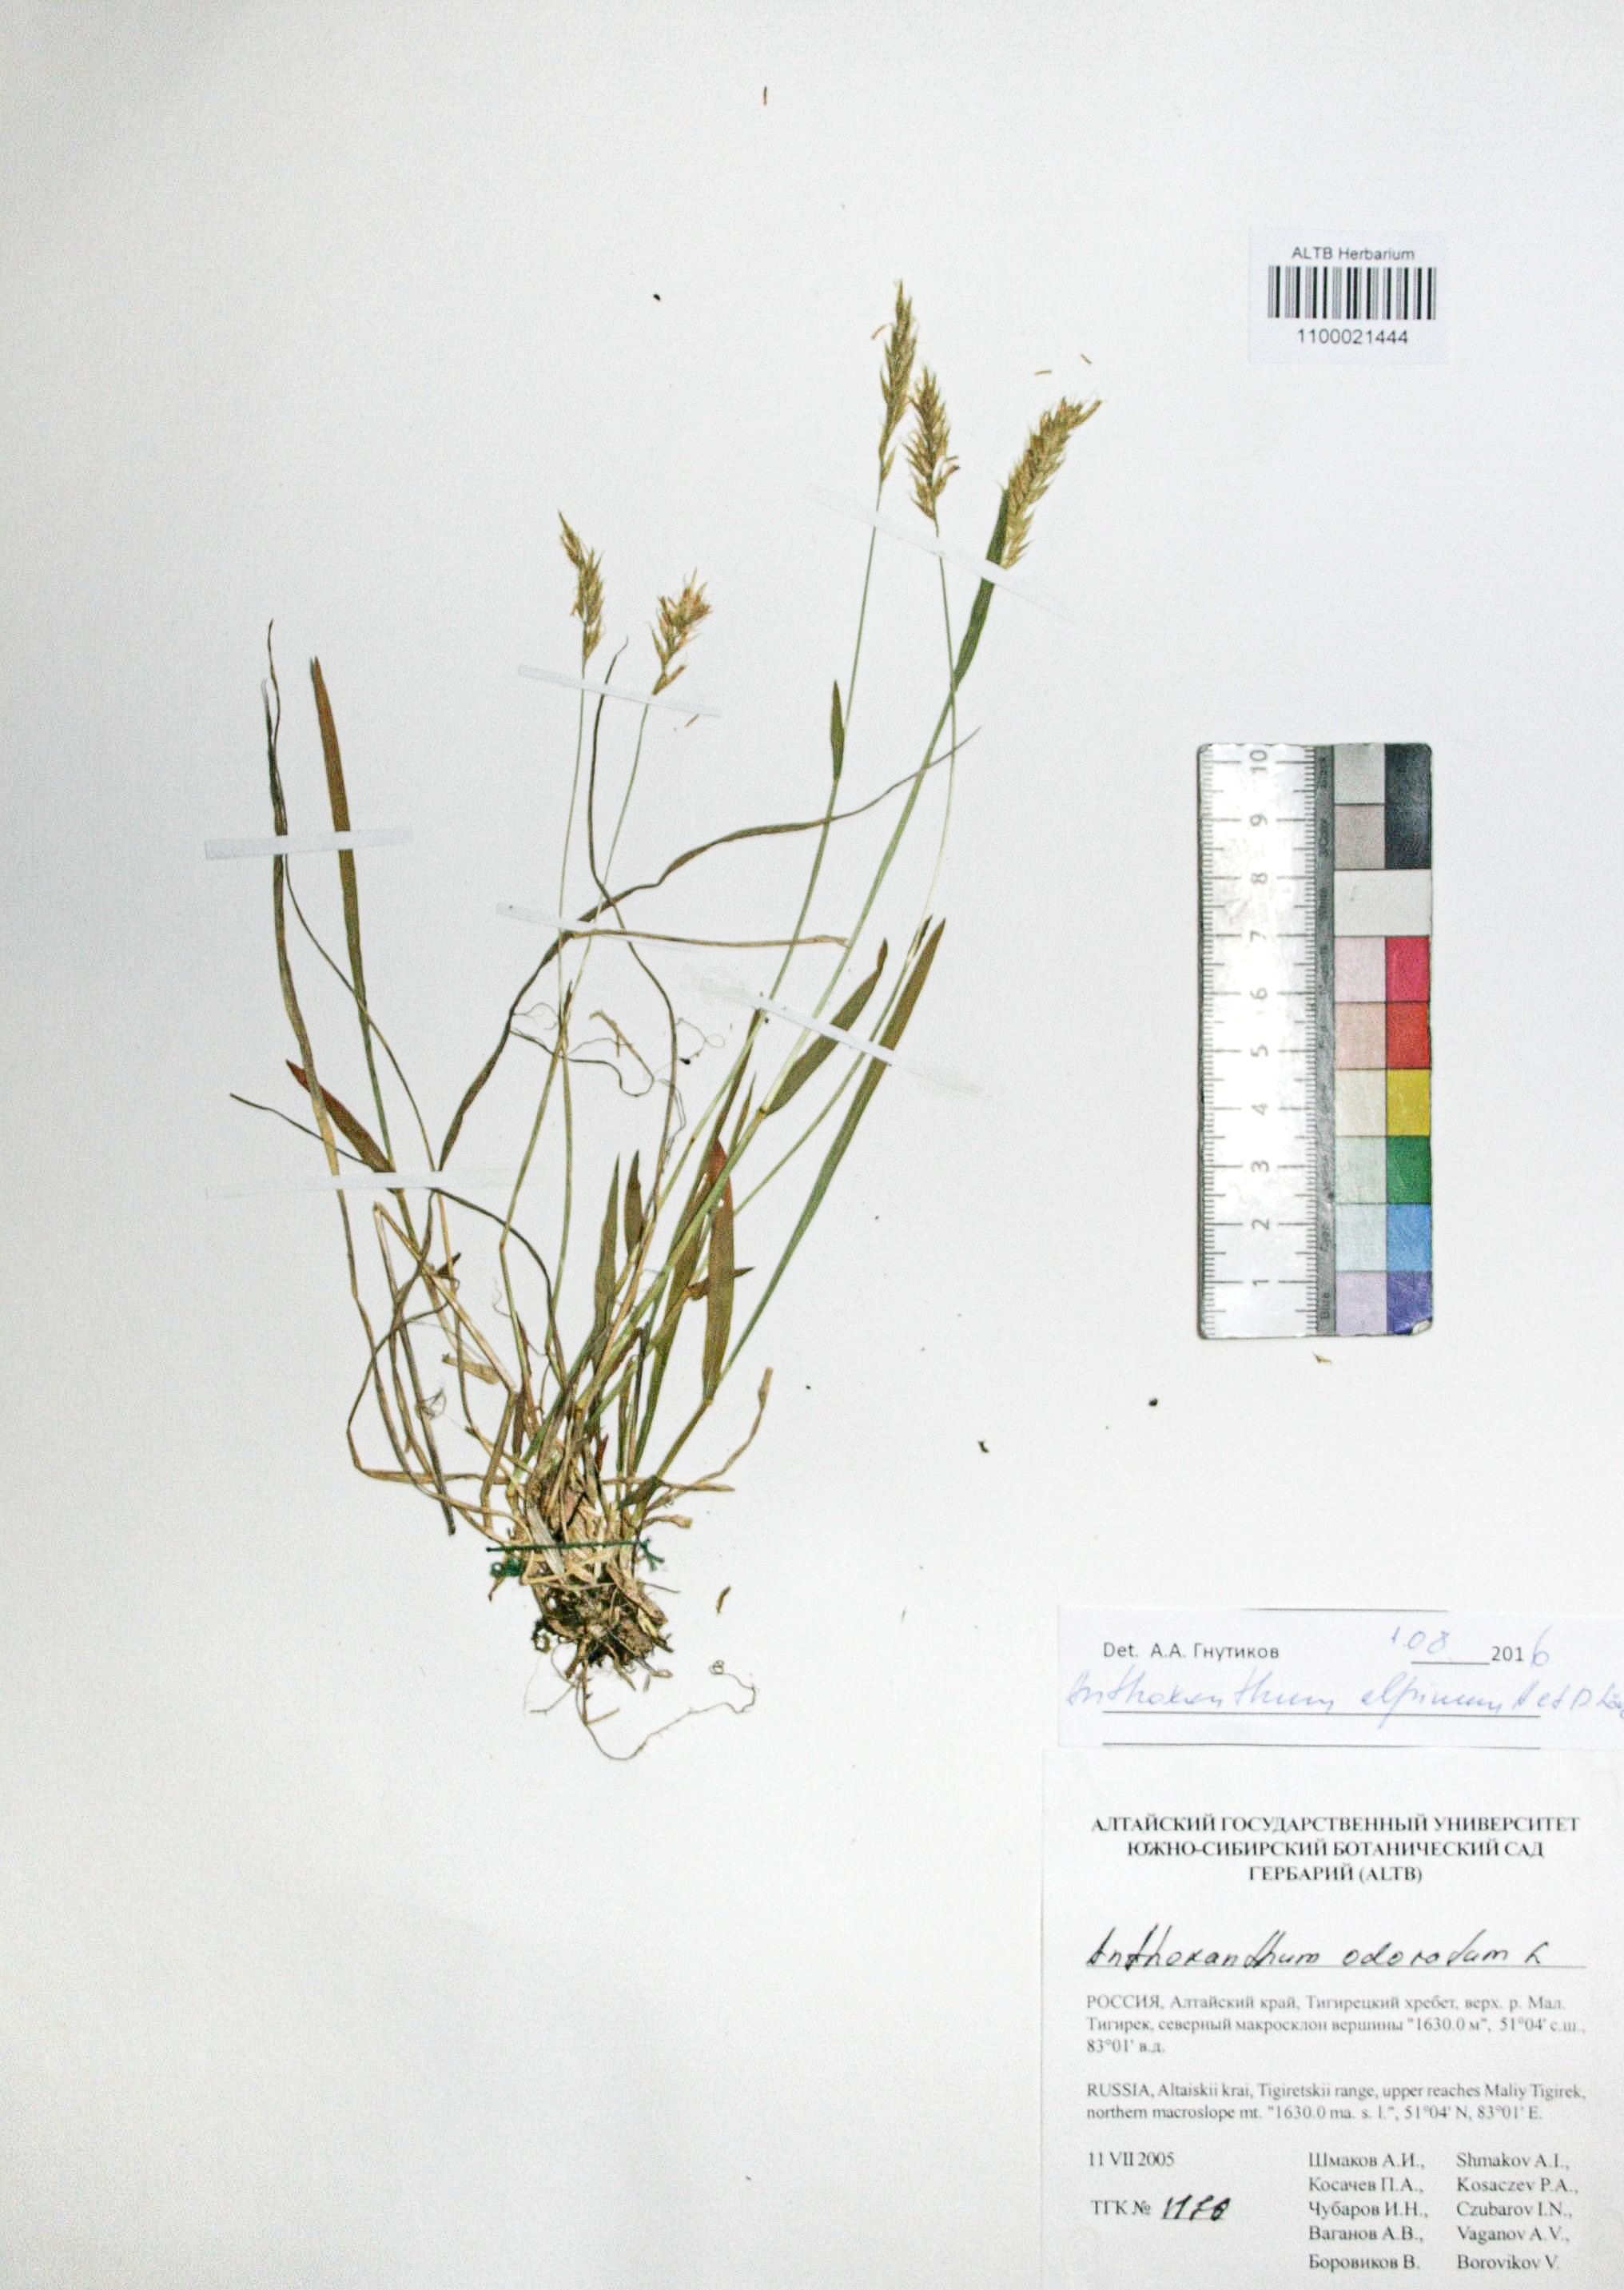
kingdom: Plantae
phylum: Tracheophyta
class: Liliopsida
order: Poales
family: Poaceae
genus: Anthoxanthum
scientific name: Anthoxanthum nipponicum
